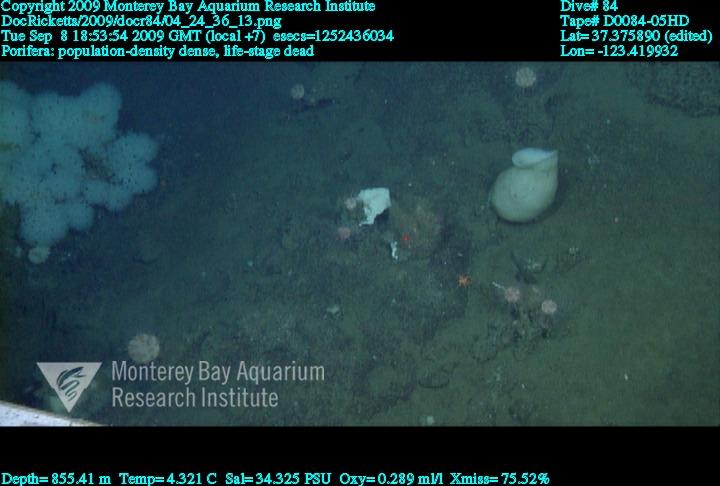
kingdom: Animalia
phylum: Porifera
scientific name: Porifera
